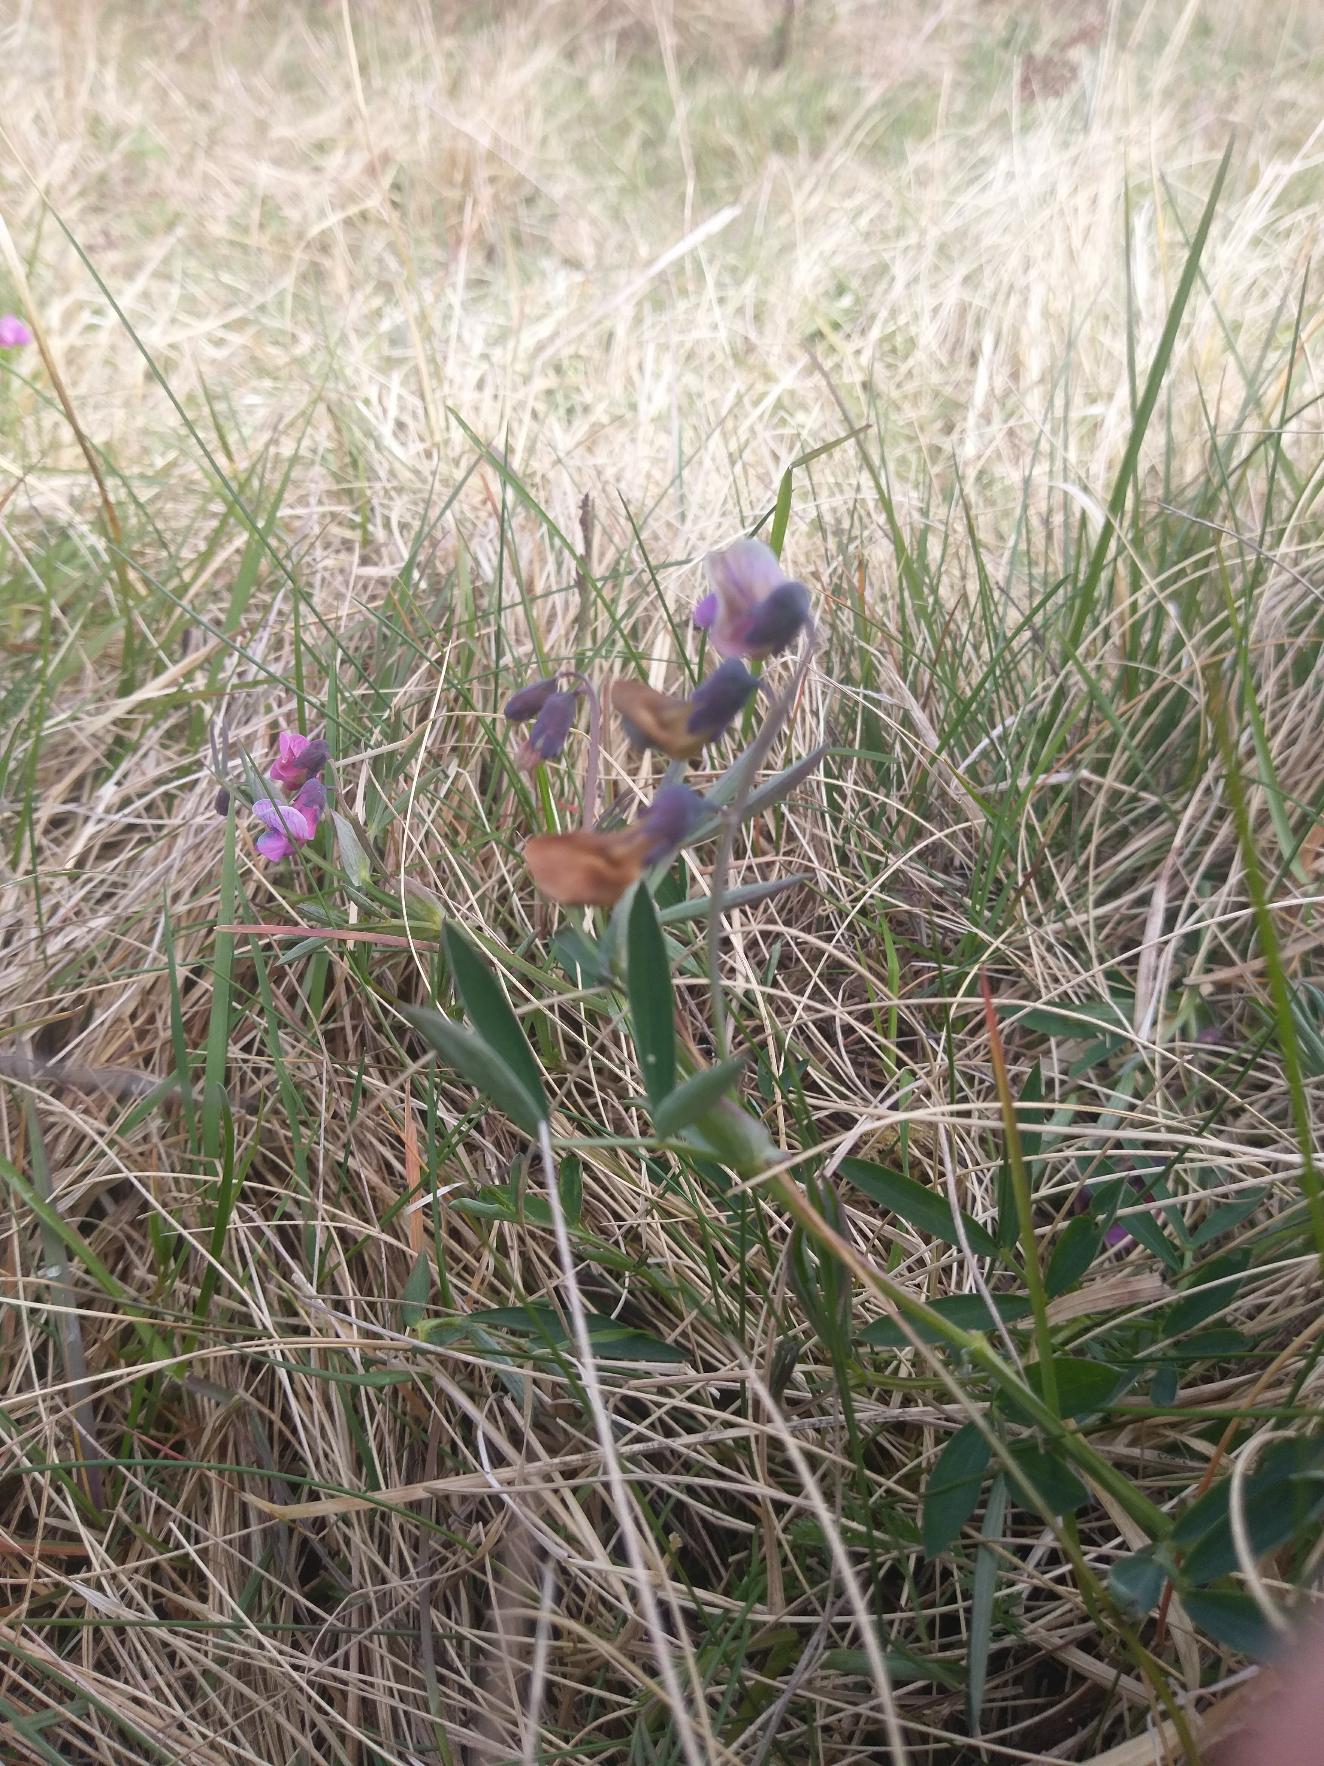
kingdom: Plantae
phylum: Tracheophyta
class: Magnoliopsida
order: Fabales
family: Fabaceae
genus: Lathyrus
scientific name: Lathyrus linifolius
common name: Krat-fladbælg
